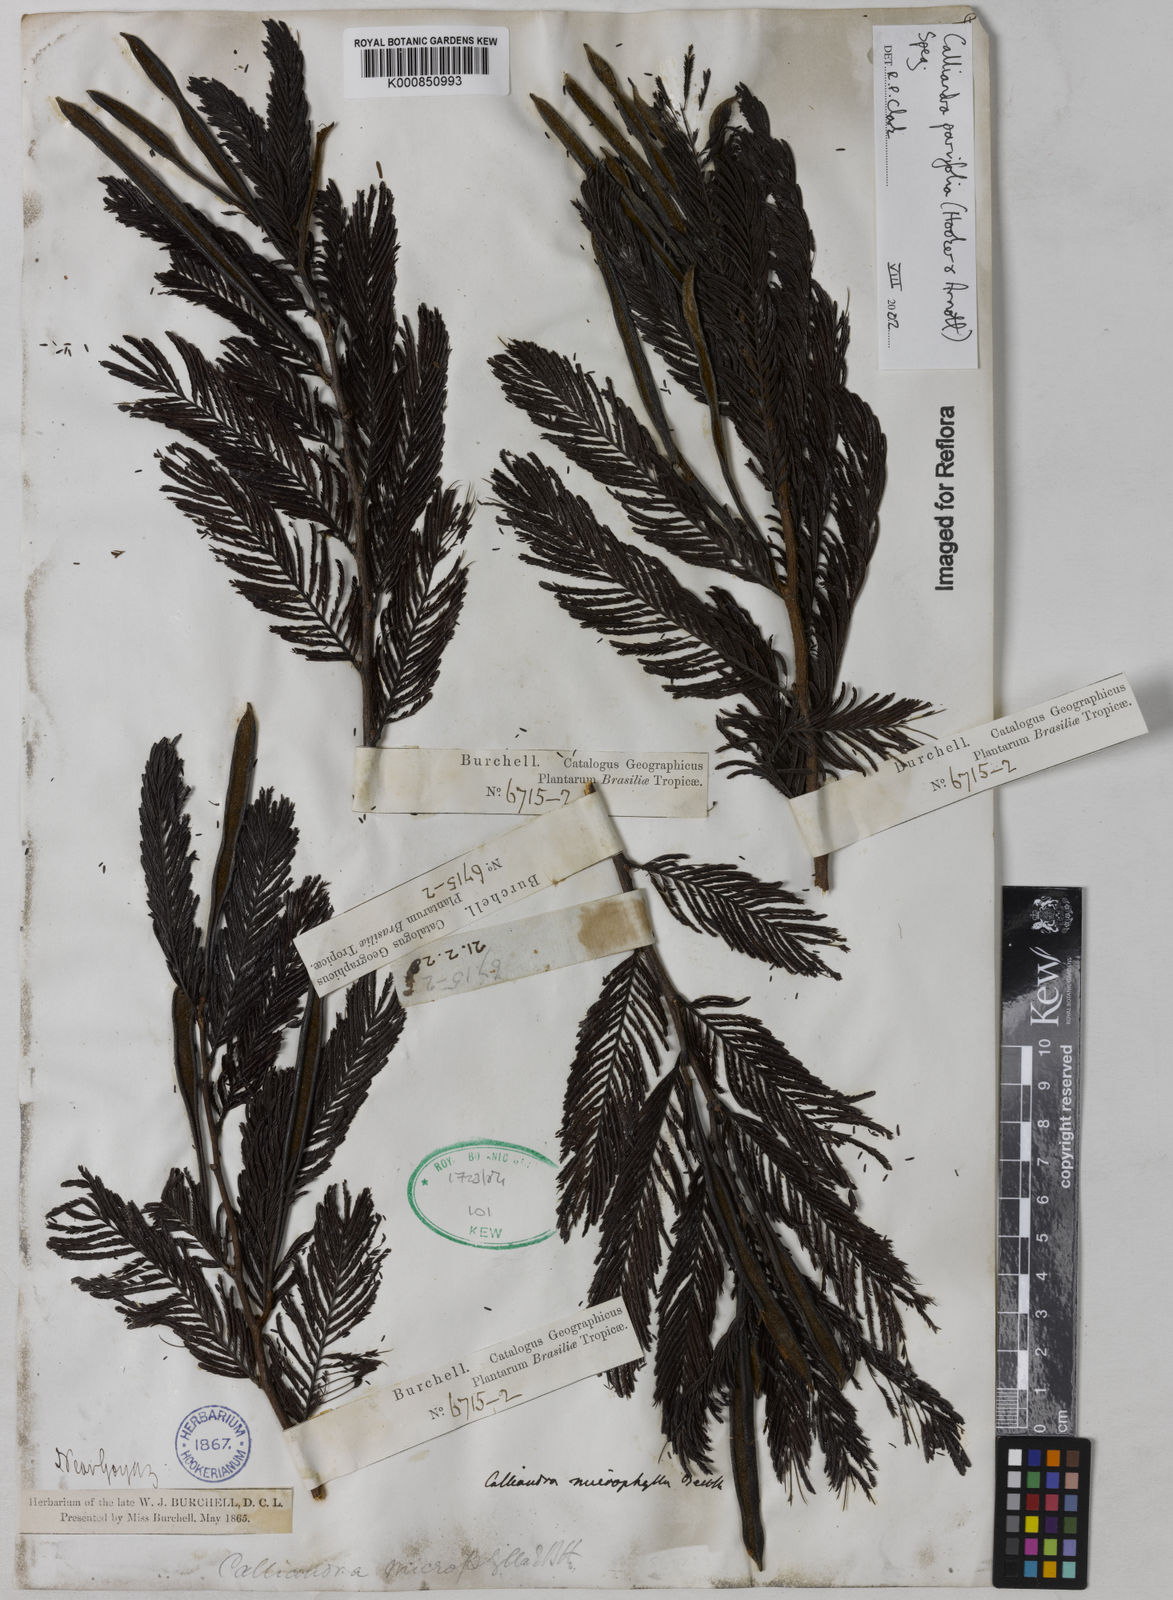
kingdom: Plantae
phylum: Tracheophyta
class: Magnoliopsida
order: Fabales
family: Fabaceae
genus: Calliandra
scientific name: Calliandra parvifolia
